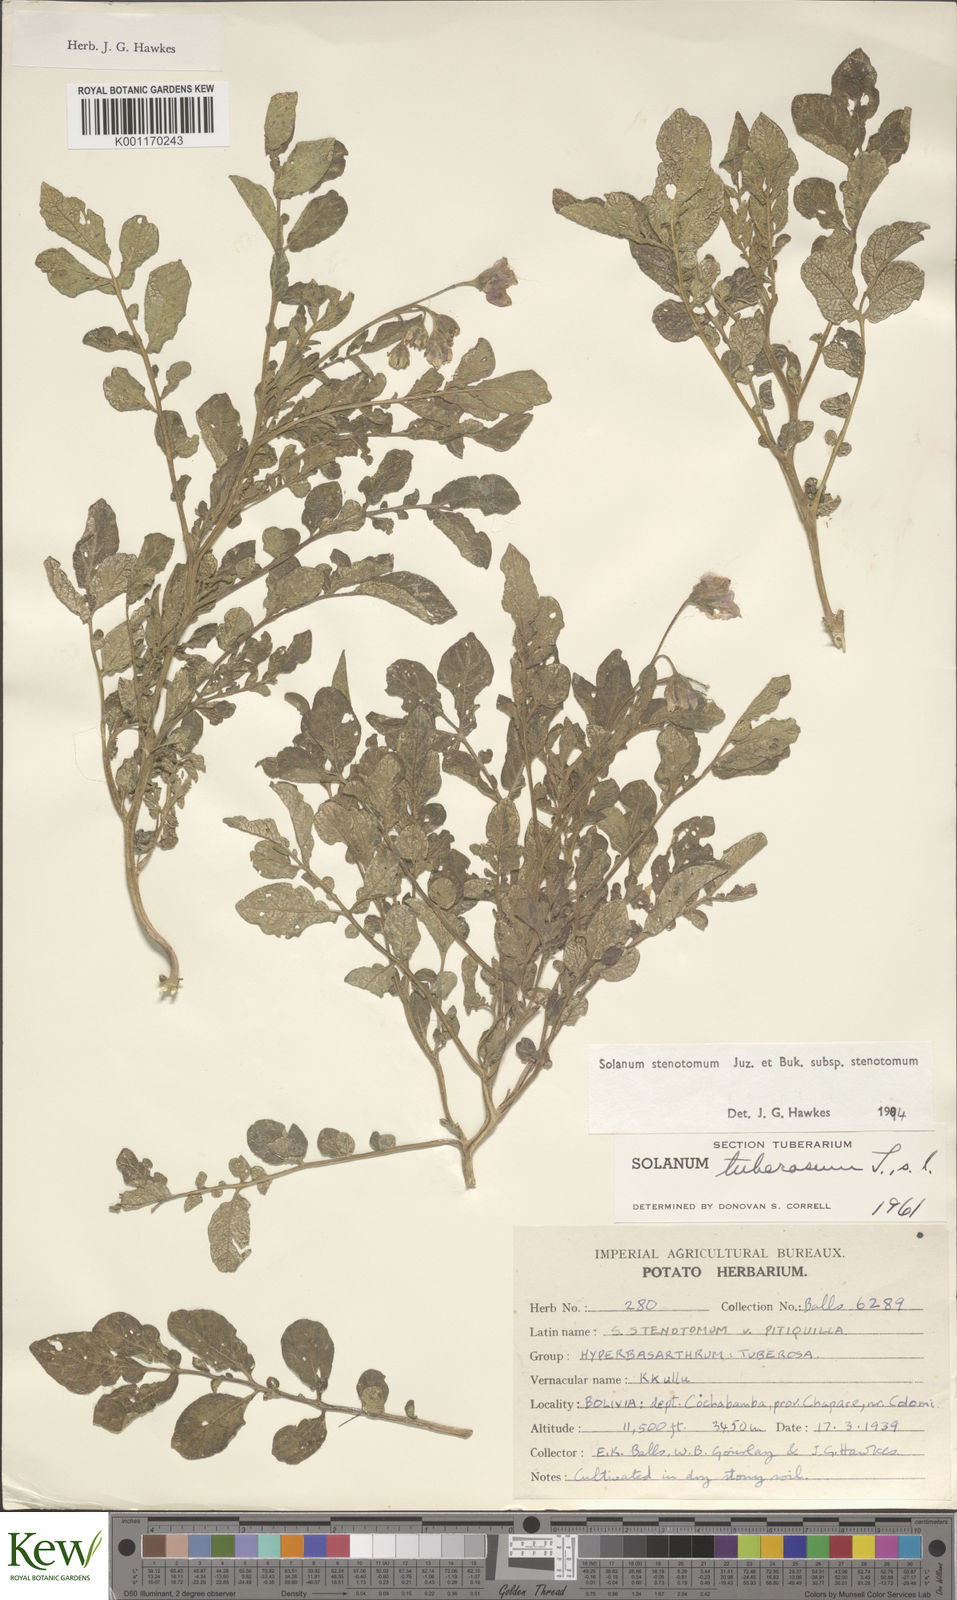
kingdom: Plantae
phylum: Tracheophyta
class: Magnoliopsida
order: Solanales
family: Solanaceae
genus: Solanum
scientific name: Solanum tuberosum
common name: Potato
